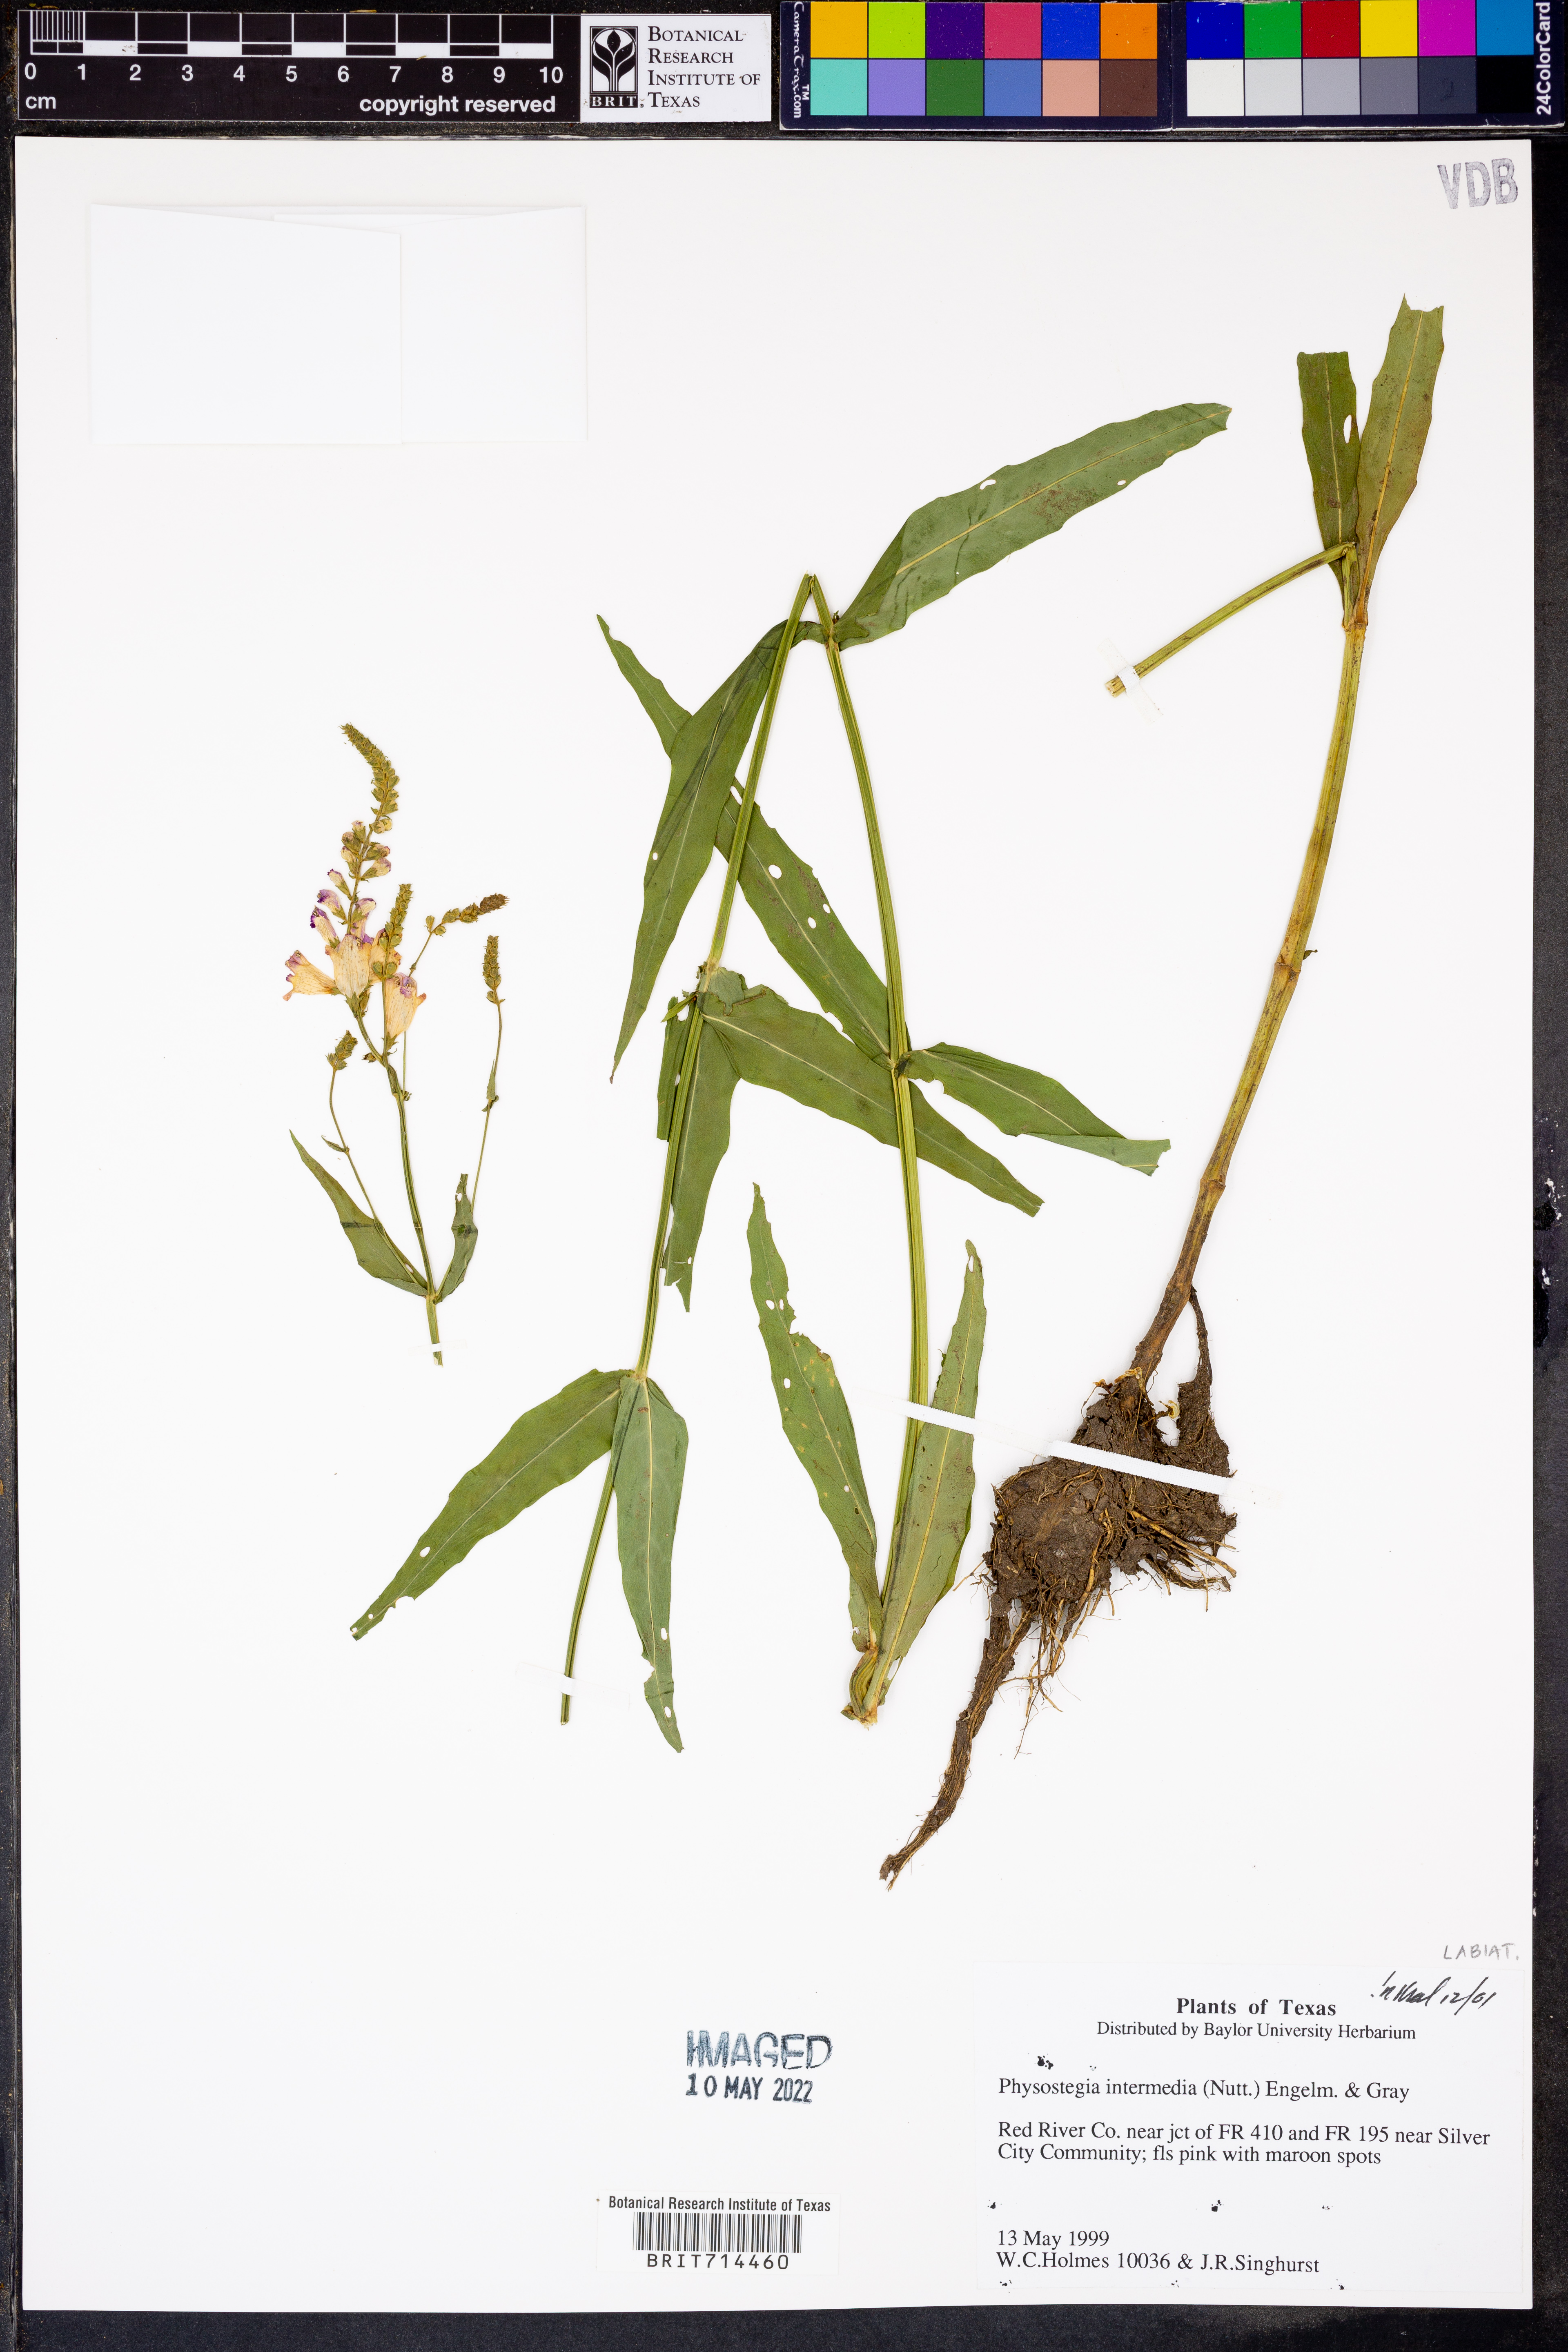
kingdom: Plantae
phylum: Tracheophyta
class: Magnoliopsida
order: Lamiales
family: Lamiaceae
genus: Physostegia
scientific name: Physostegia intermedia
